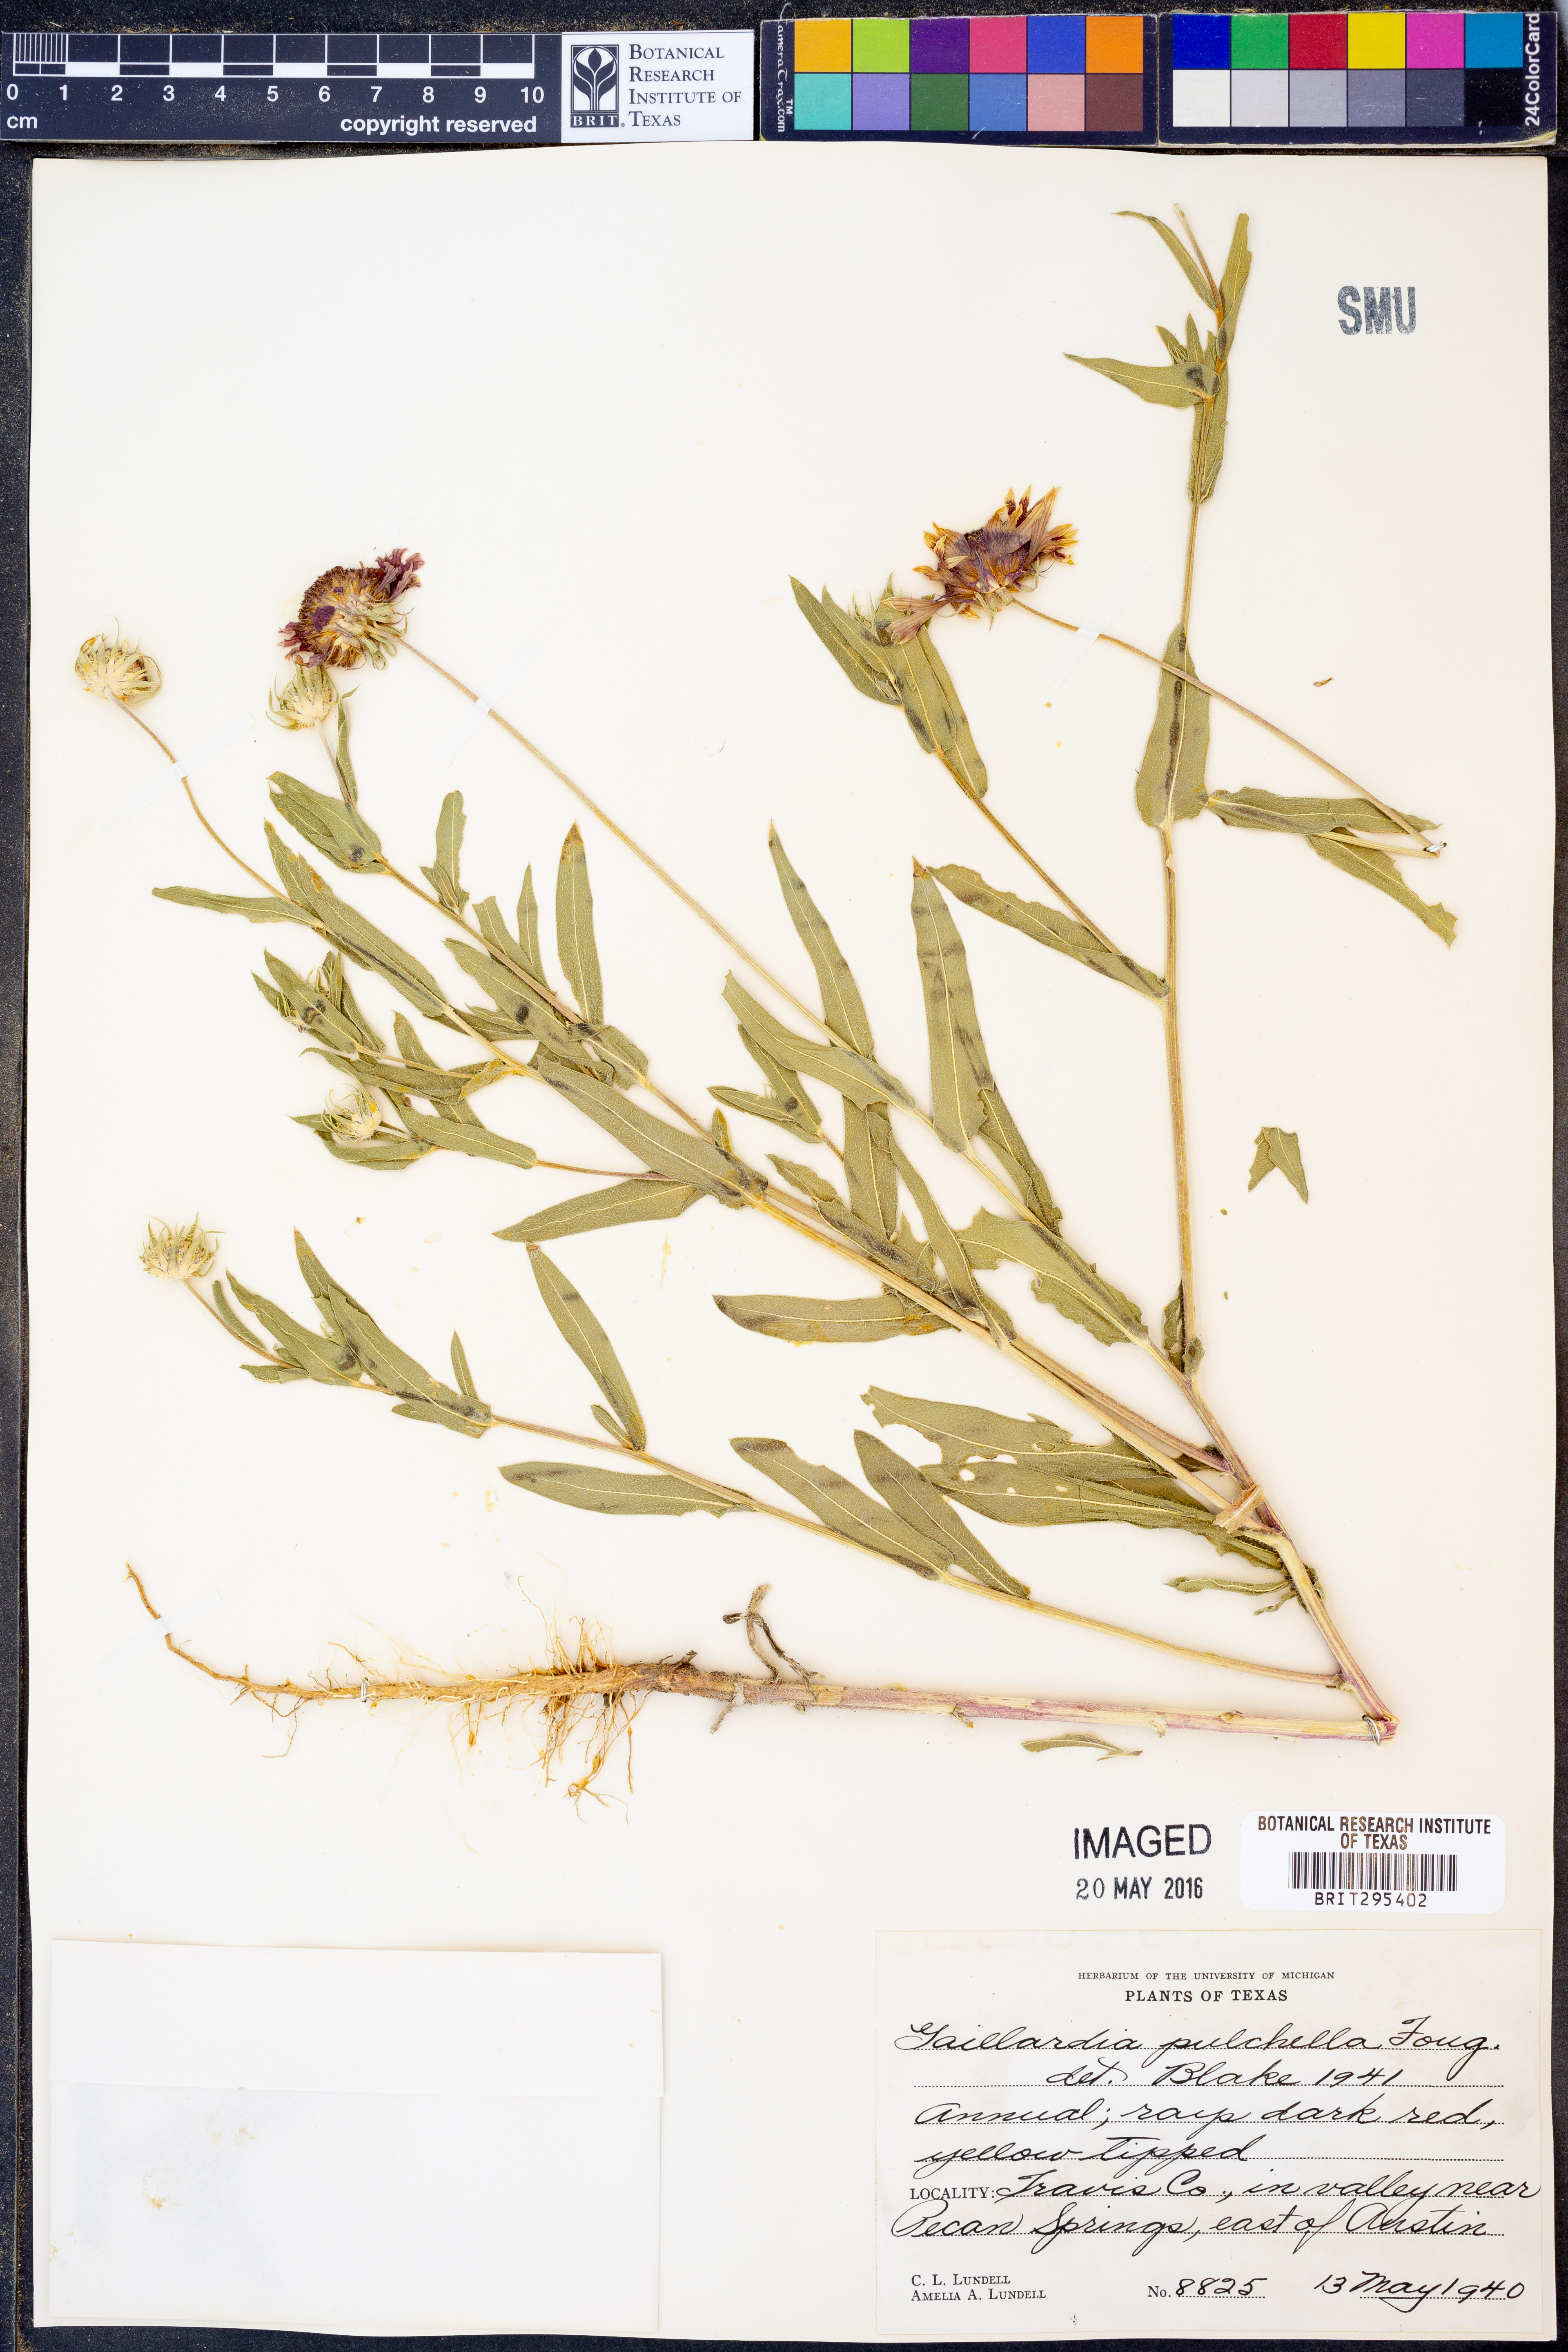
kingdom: Plantae
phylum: Tracheophyta
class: Magnoliopsida
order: Asterales
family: Asteraceae
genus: Gaillardia
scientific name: Gaillardia pulchella
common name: Firewheel
